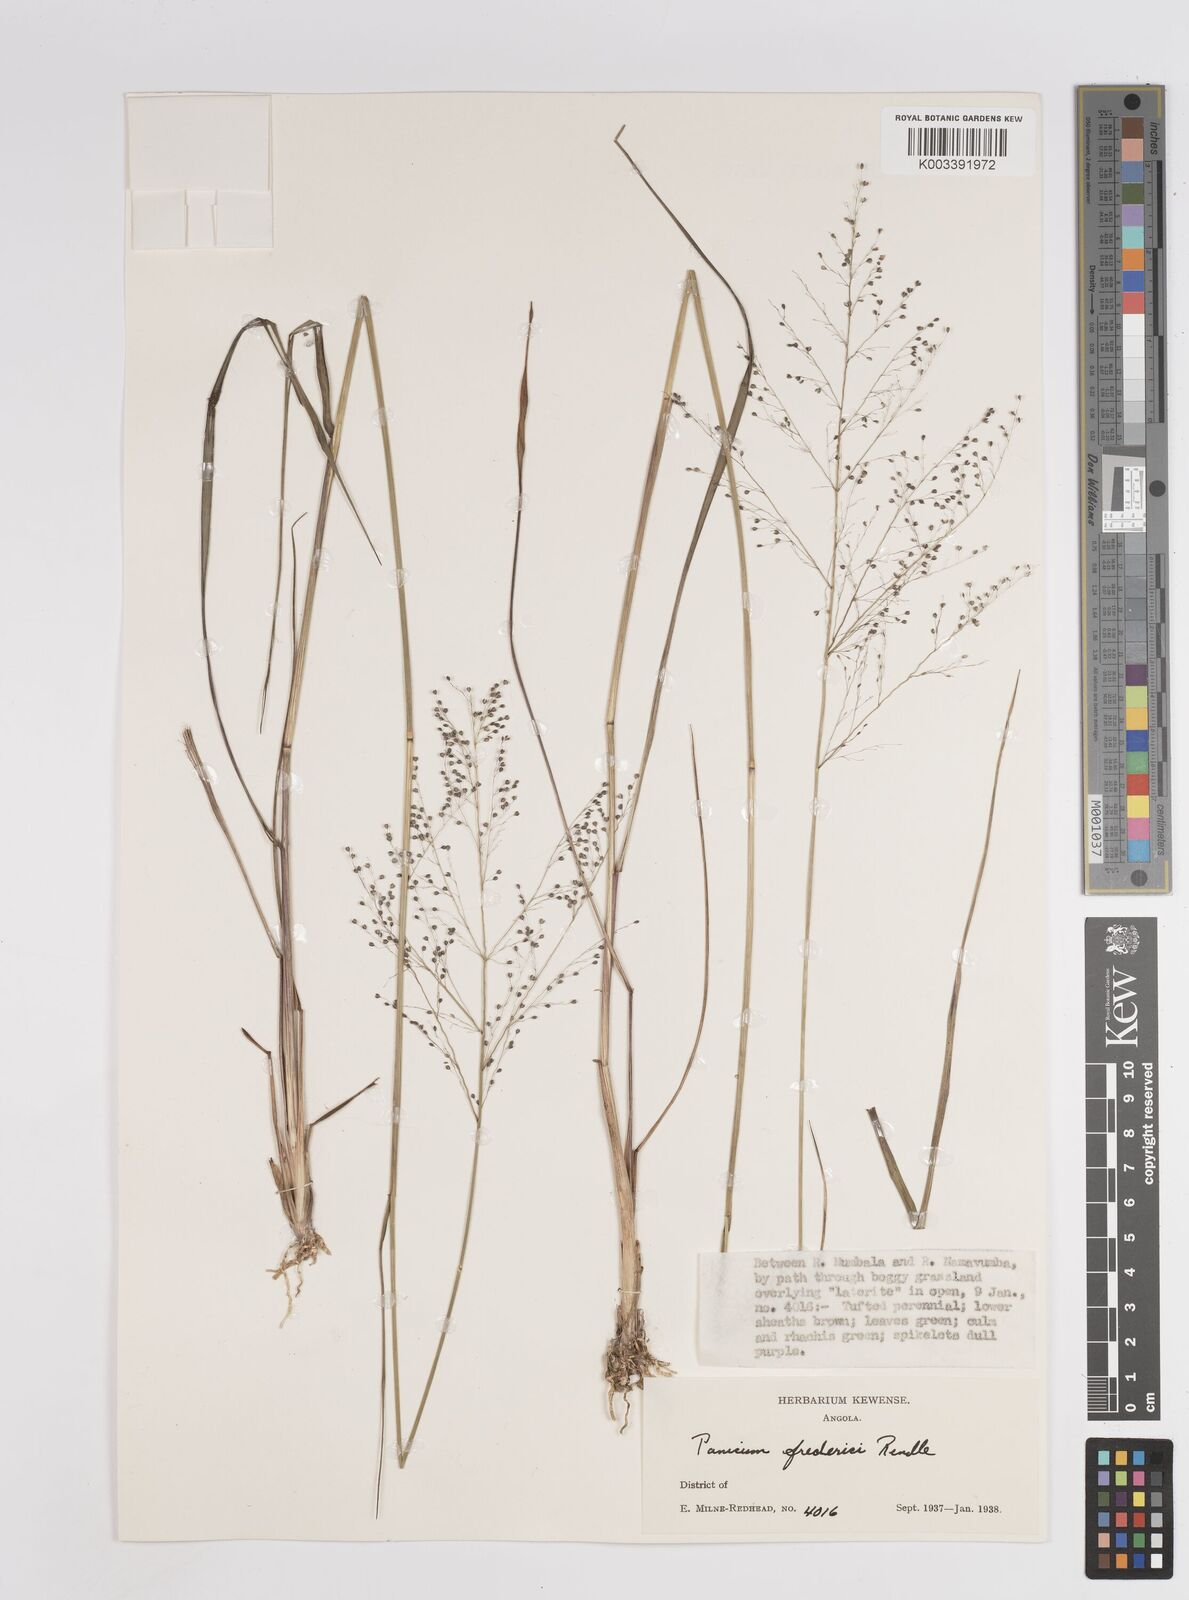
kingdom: Plantae
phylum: Tracheophyta
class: Liliopsida
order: Poales
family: Poaceae
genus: Trichanthecium
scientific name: Trichanthecium brazzavillense
